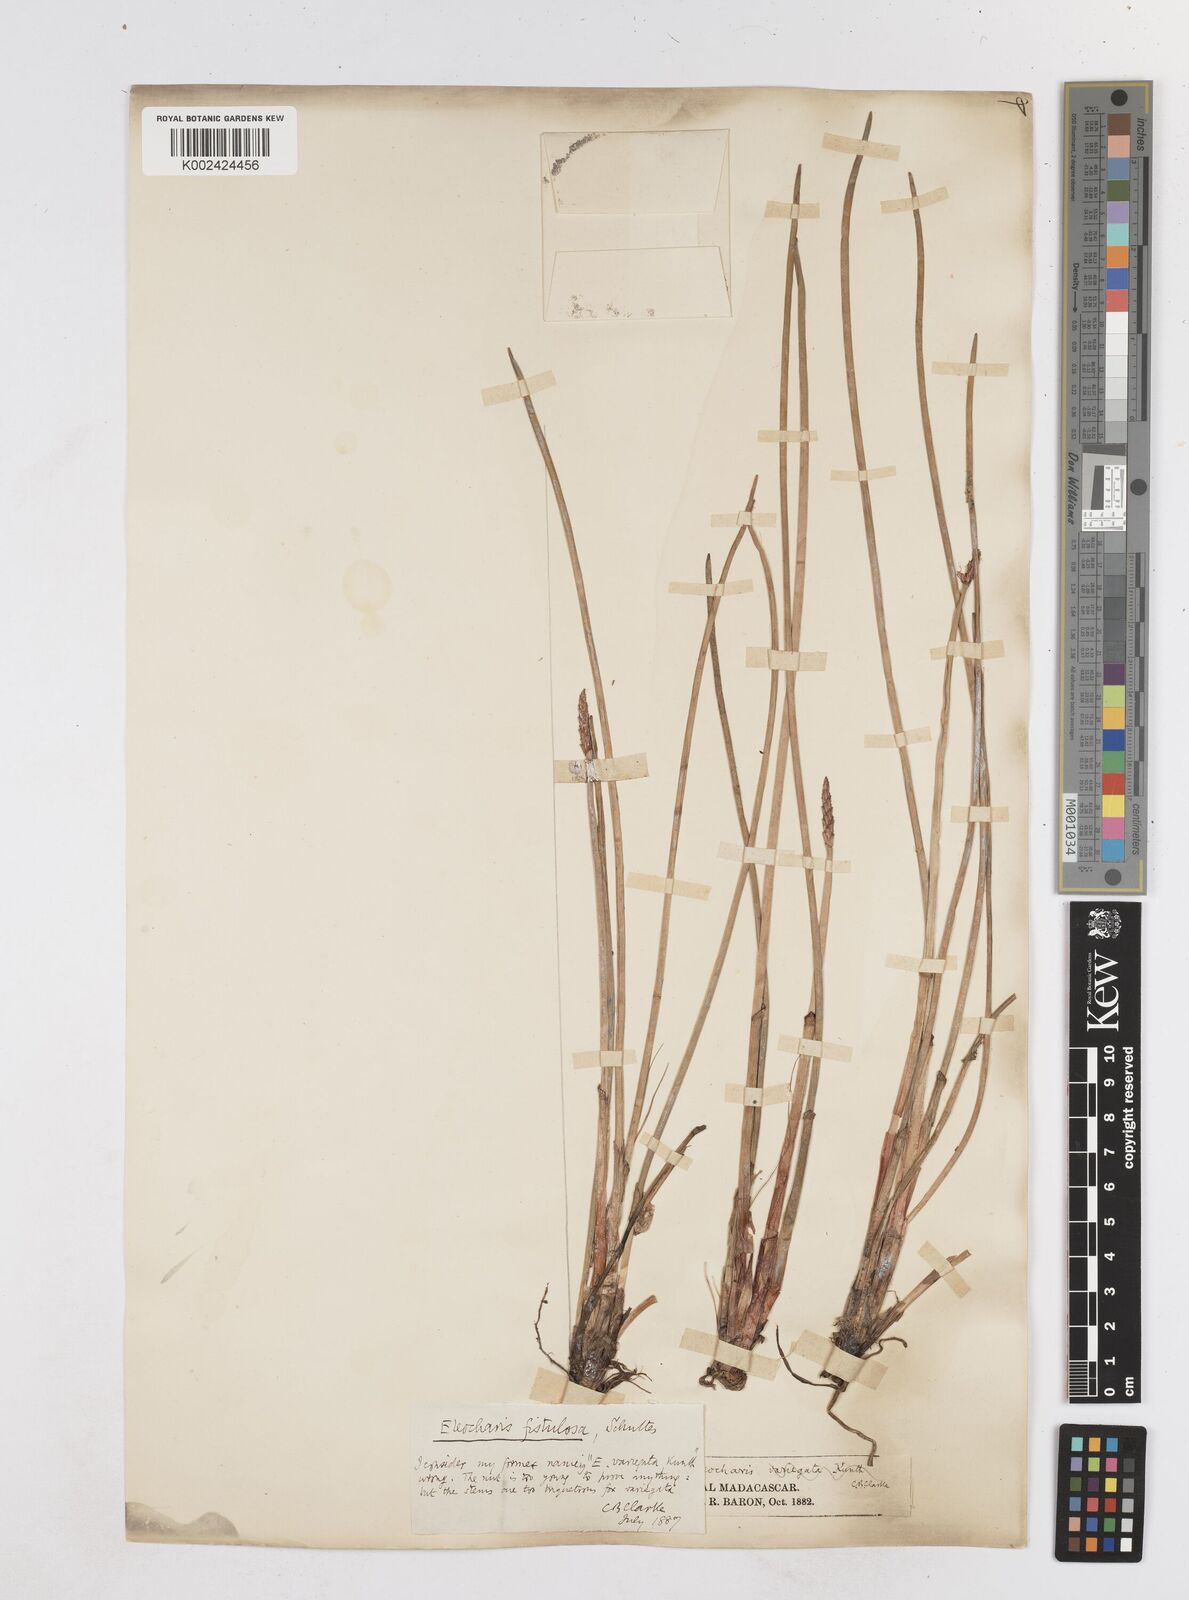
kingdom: Plantae
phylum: Tracheophyta
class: Liliopsida
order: Poales
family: Cyperaceae
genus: Eleocharis
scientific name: Eleocharis acutangula
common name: Acute spikerush
